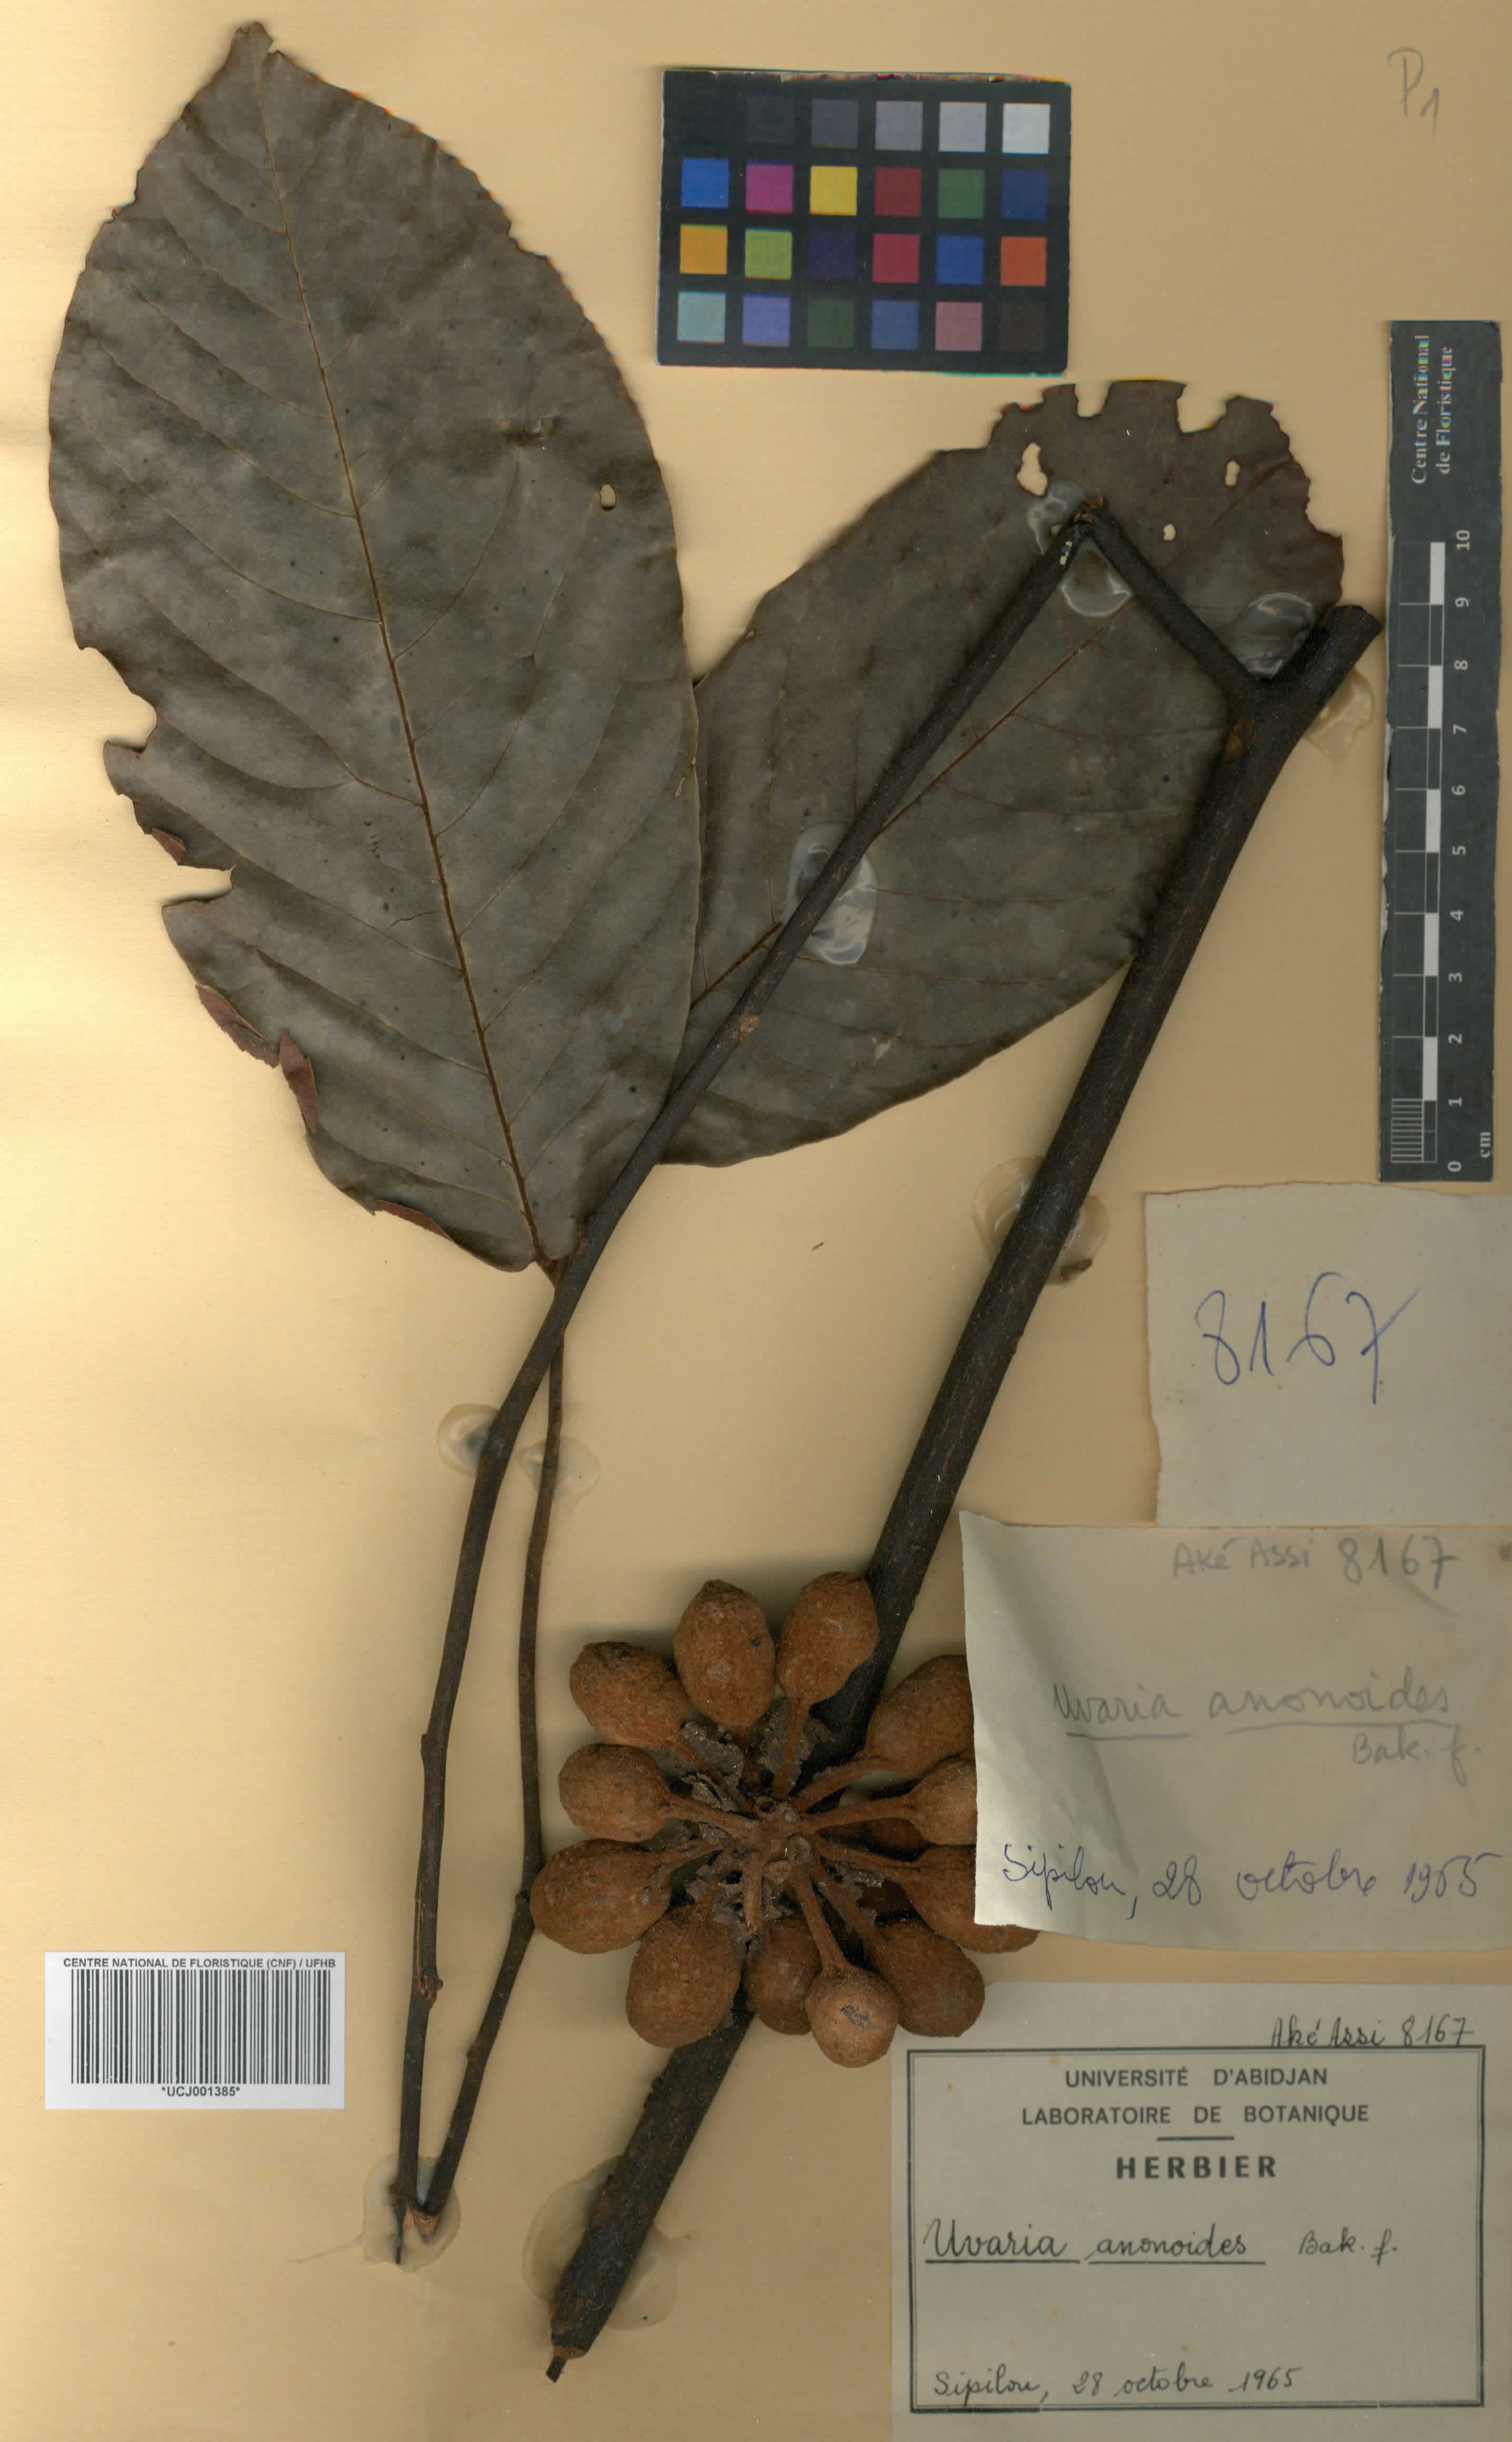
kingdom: Plantae
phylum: Tracheophyta
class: Magnoliopsida
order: Magnoliales
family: Annonaceae
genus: Uvaria
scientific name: Uvaria anonoides
